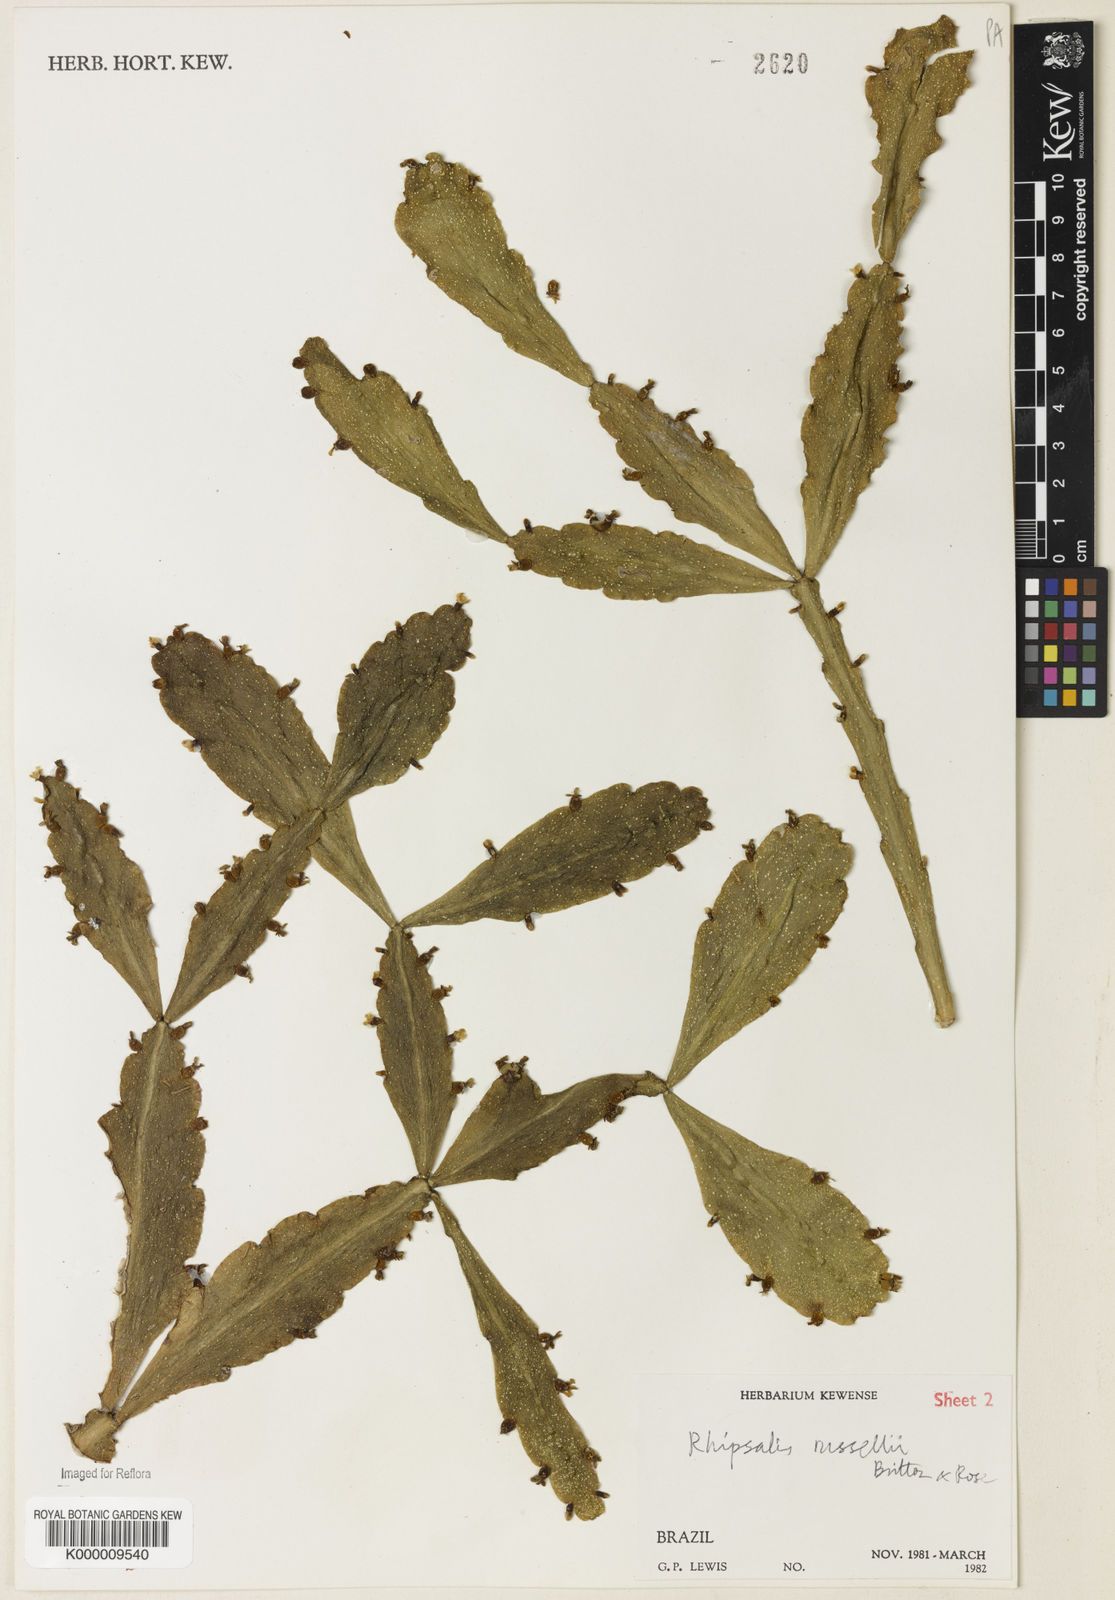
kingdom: Plantae
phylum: Tracheophyta
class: Magnoliopsida
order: Caryophyllales
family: Cactaceae
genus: Rhipsalis
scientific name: Rhipsalis
